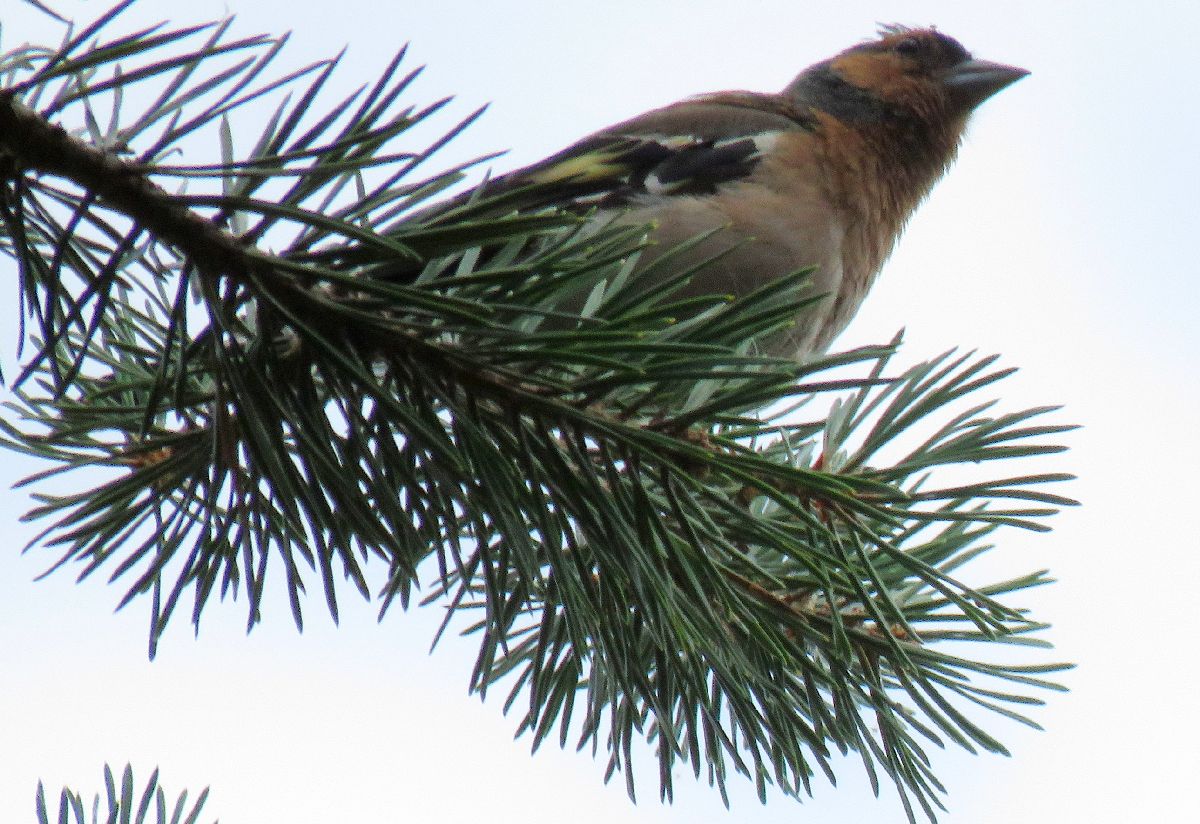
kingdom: Animalia
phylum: Chordata
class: Aves
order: Passeriformes
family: Fringillidae
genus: Fringilla
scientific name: Fringilla coelebs
